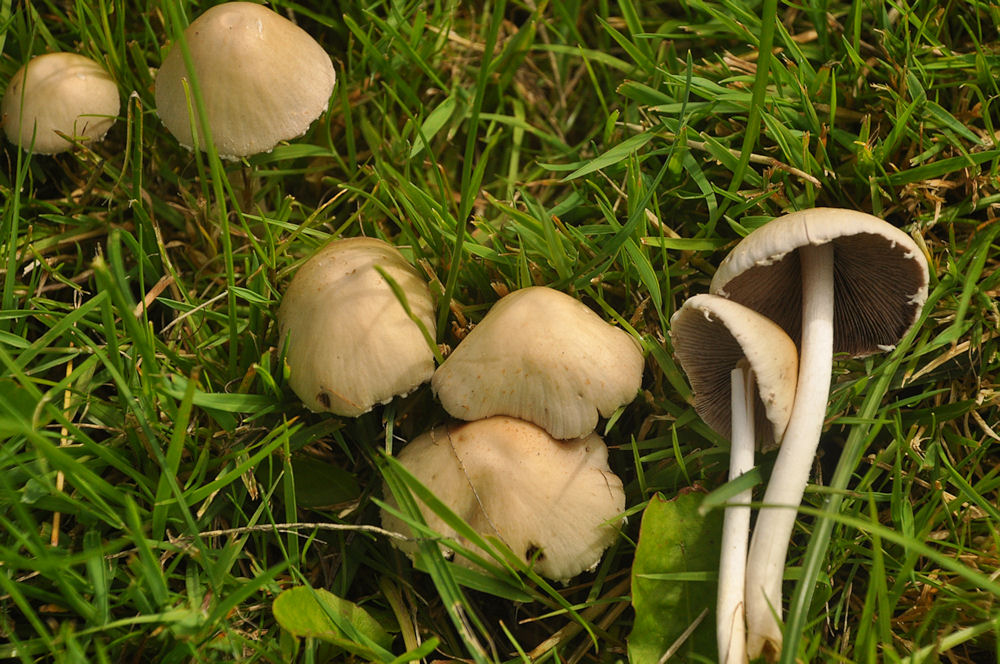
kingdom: Fungi
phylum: Basidiomycota
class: Agaricomycetes
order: Agaricales
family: Psathyrellaceae
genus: Candolleomyces
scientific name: Candolleomyces candolleanus
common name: Candolles mørkhat
